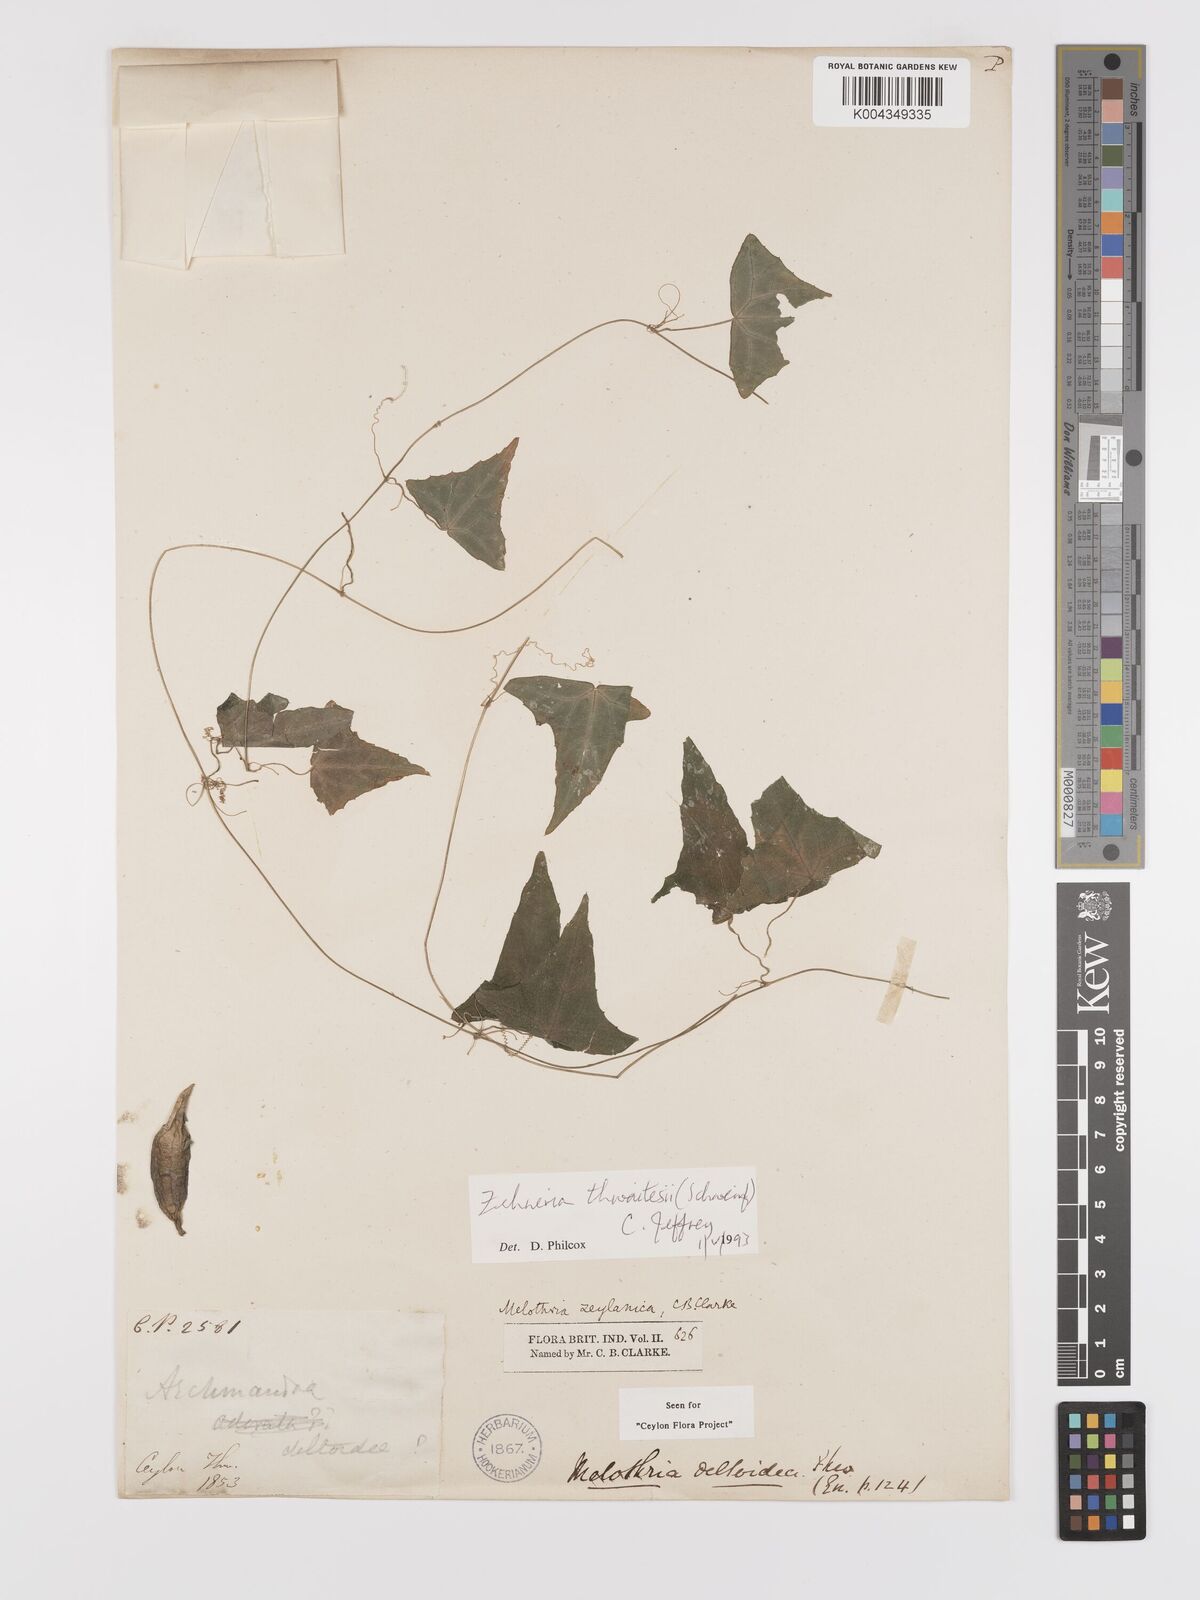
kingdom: Plantae
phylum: Tracheophyta
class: Magnoliopsida
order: Cucurbitales
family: Cucurbitaceae
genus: Zehneria
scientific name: Zehneria thwaitesii
